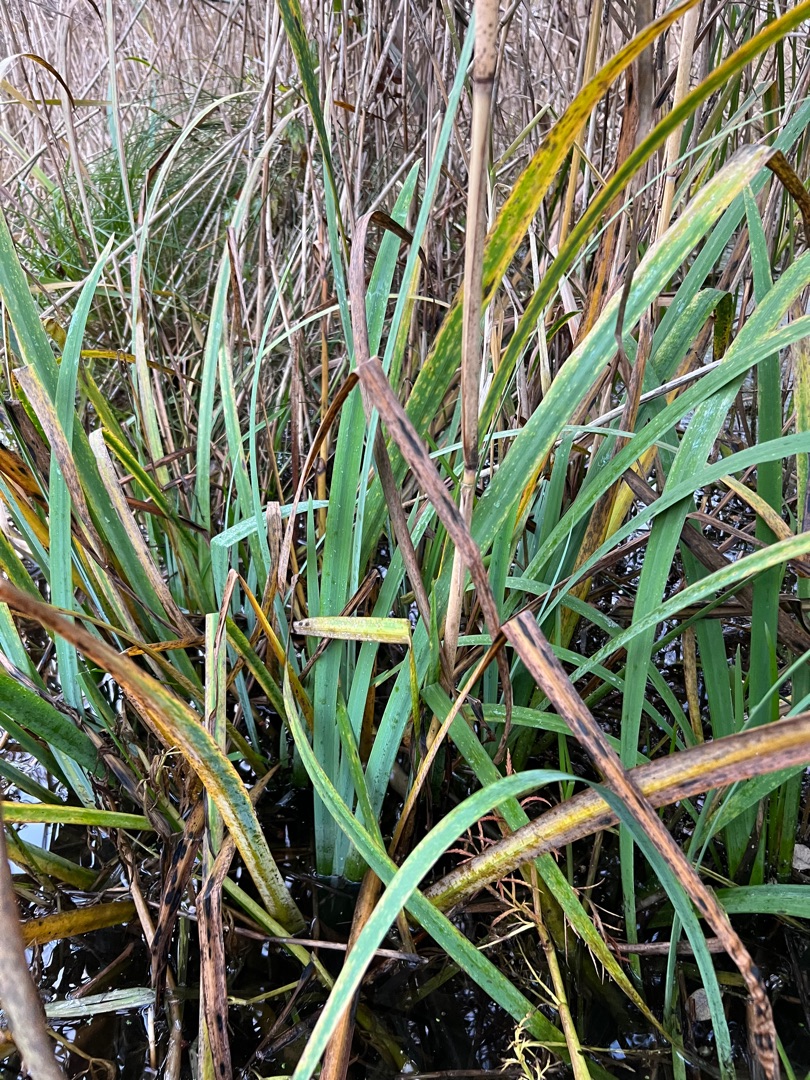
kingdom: Plantae
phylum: Tracheophyta
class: Liliopsida
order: Asparagales
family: Iridaceae
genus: Iris
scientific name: Iris pseudacorus
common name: Gul iris
